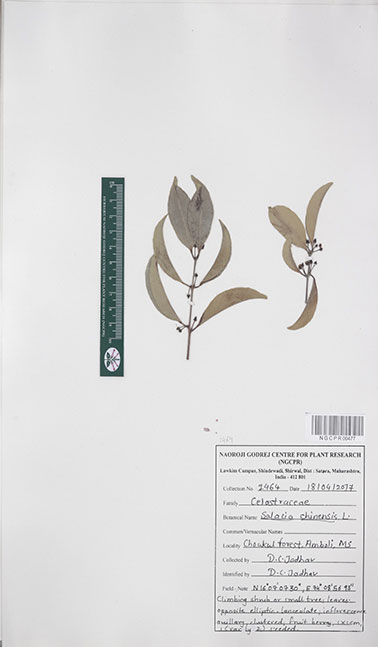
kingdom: Plantae
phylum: Tracheophyta
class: Magnoliopsida
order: Celastrales
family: Celastraceae
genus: Salacia
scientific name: Salacia chinensis
